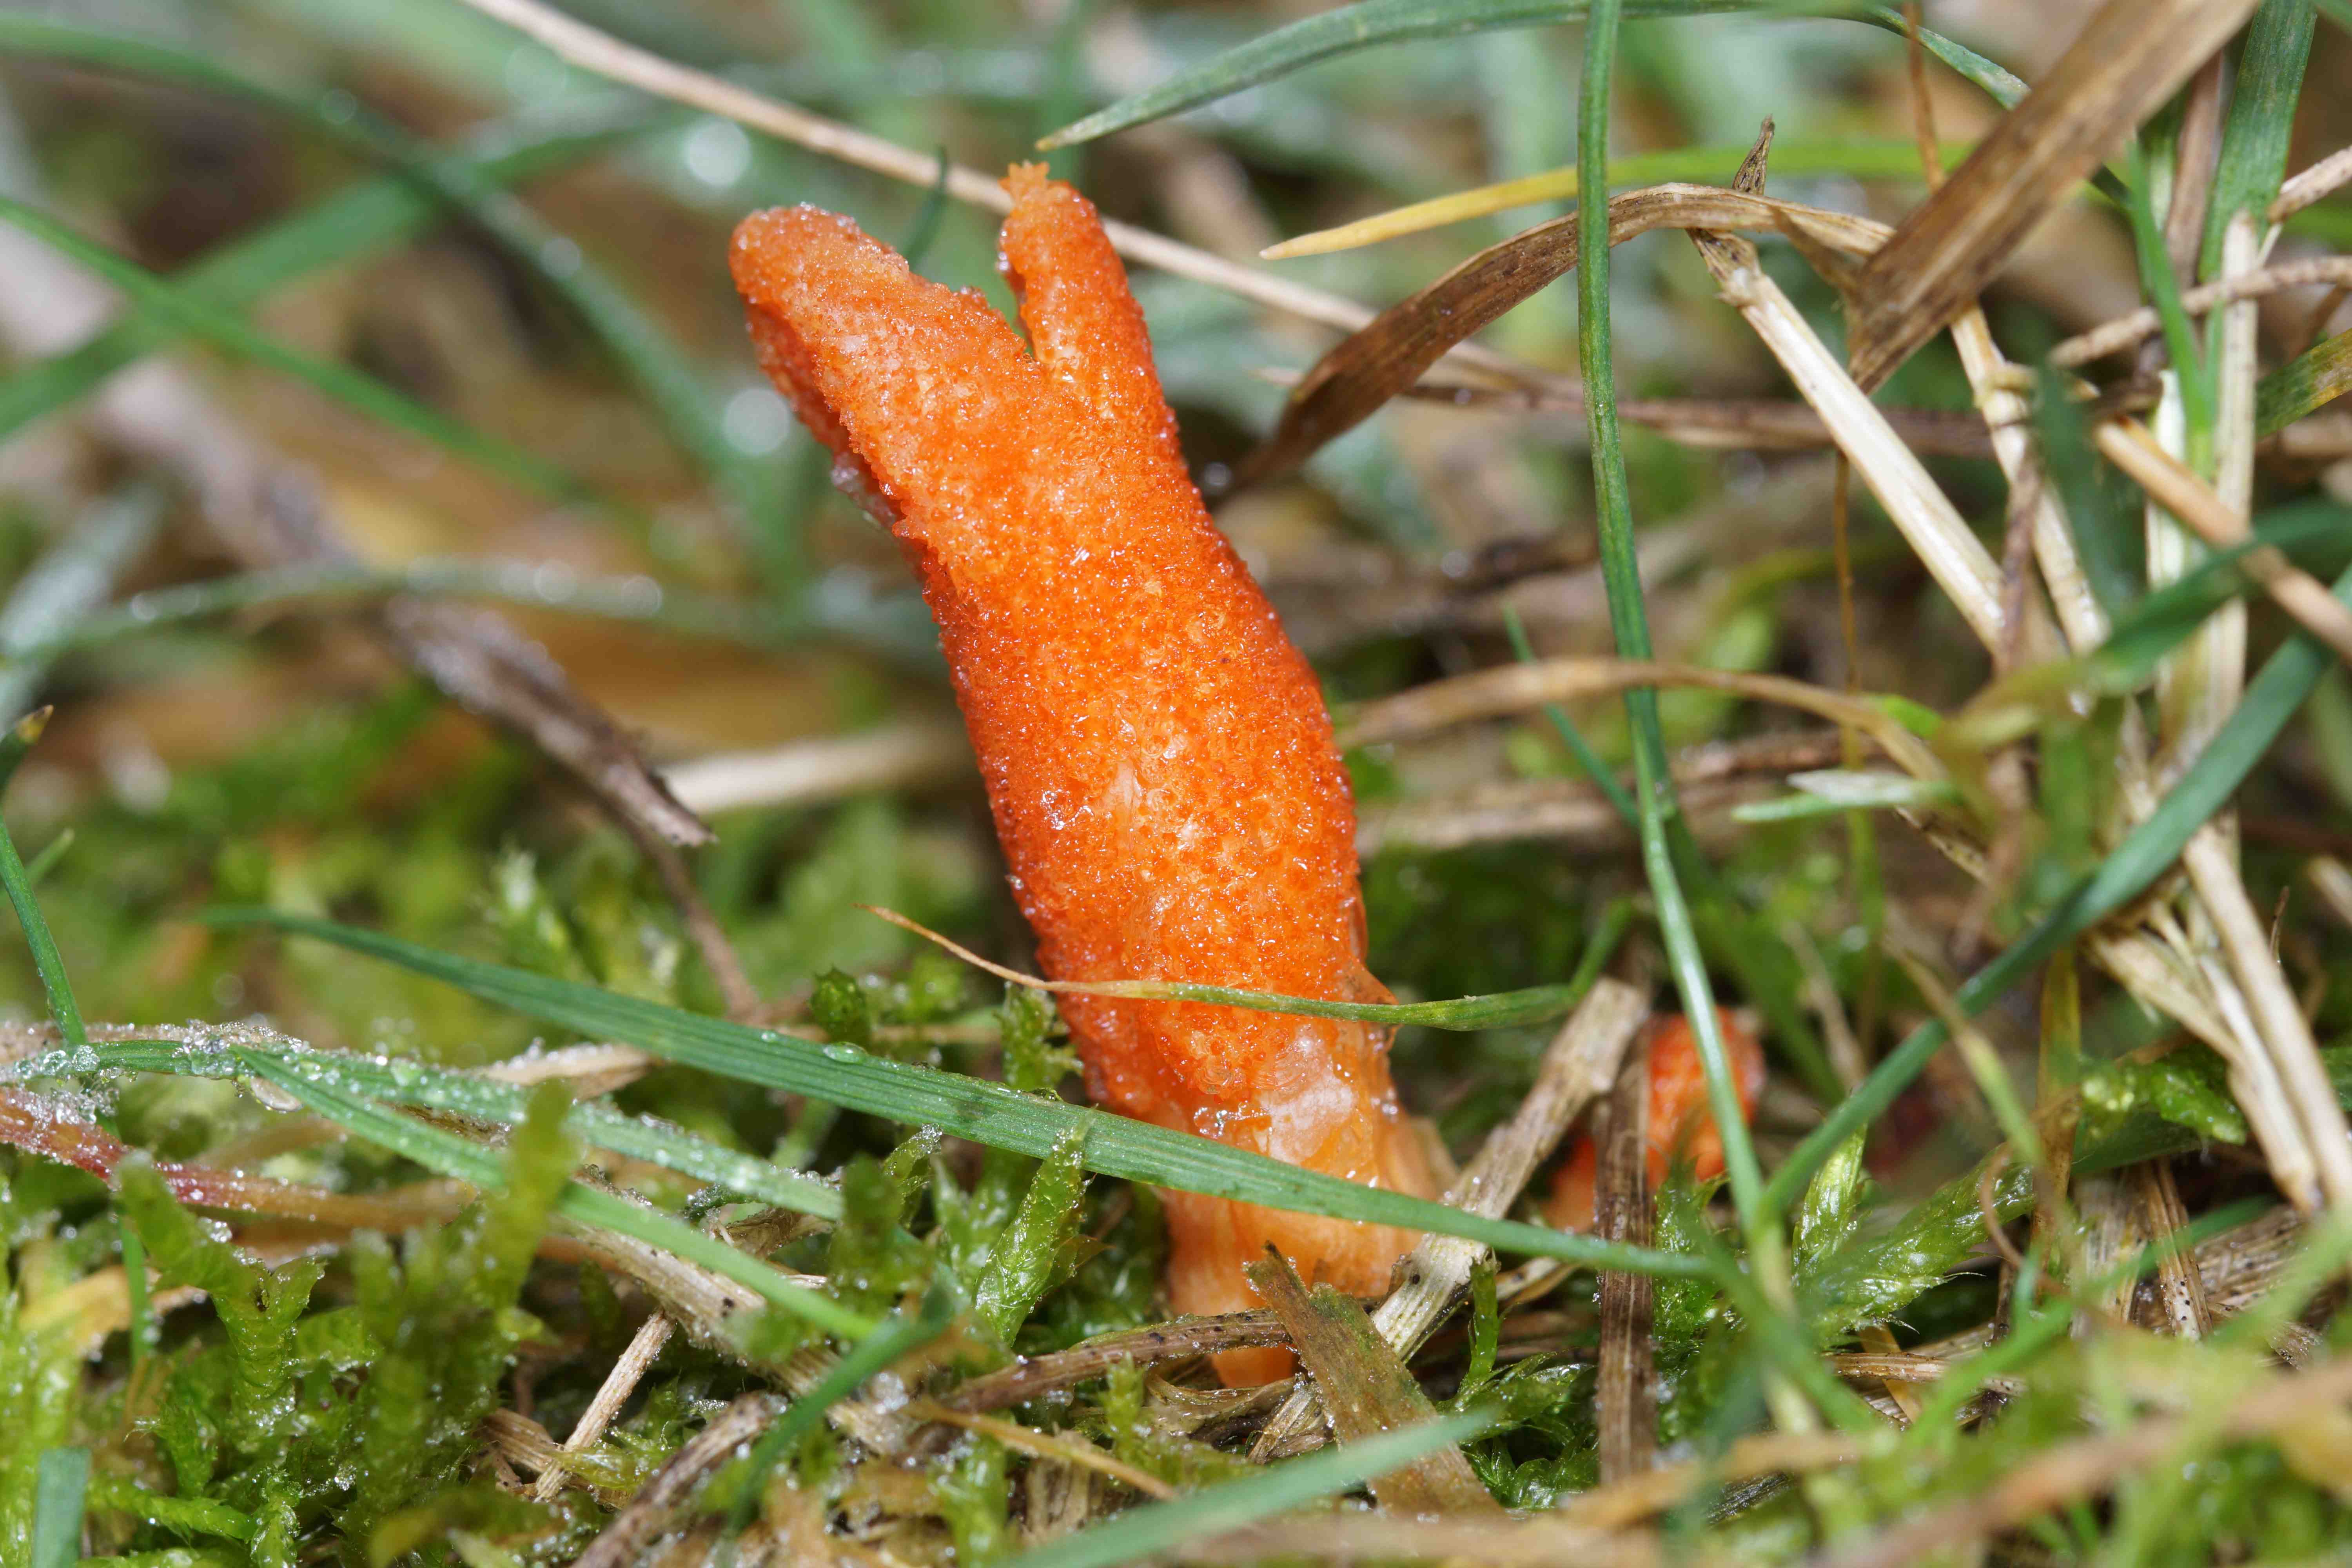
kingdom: Fungi
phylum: Ascomycota
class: Sordariomycetes
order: Hypocreales
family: Cordycipitaceae
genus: Cordyceps
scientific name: Cordyceps militaris
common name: puppe-snyltekølle
